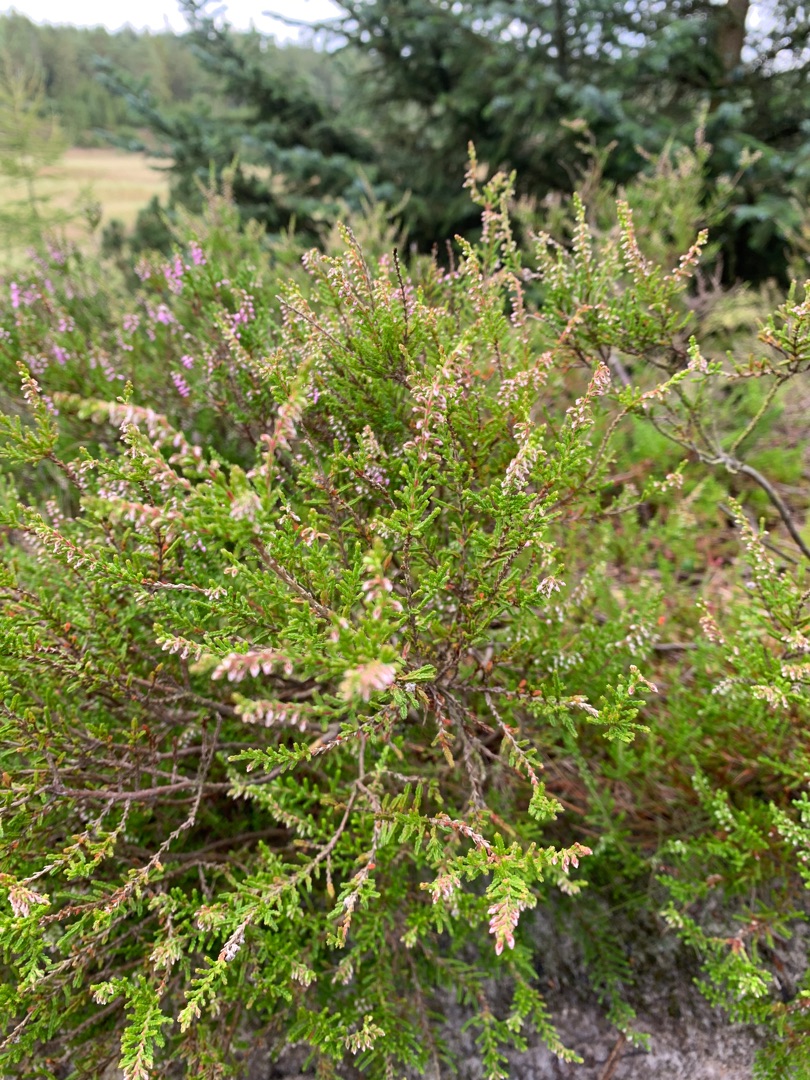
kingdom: Plantae
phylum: Tracheophyta
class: Magnoliopsida
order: Ericales
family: Ericaceae
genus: Calluna
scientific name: Calluna vulgaris
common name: Hedelyng
